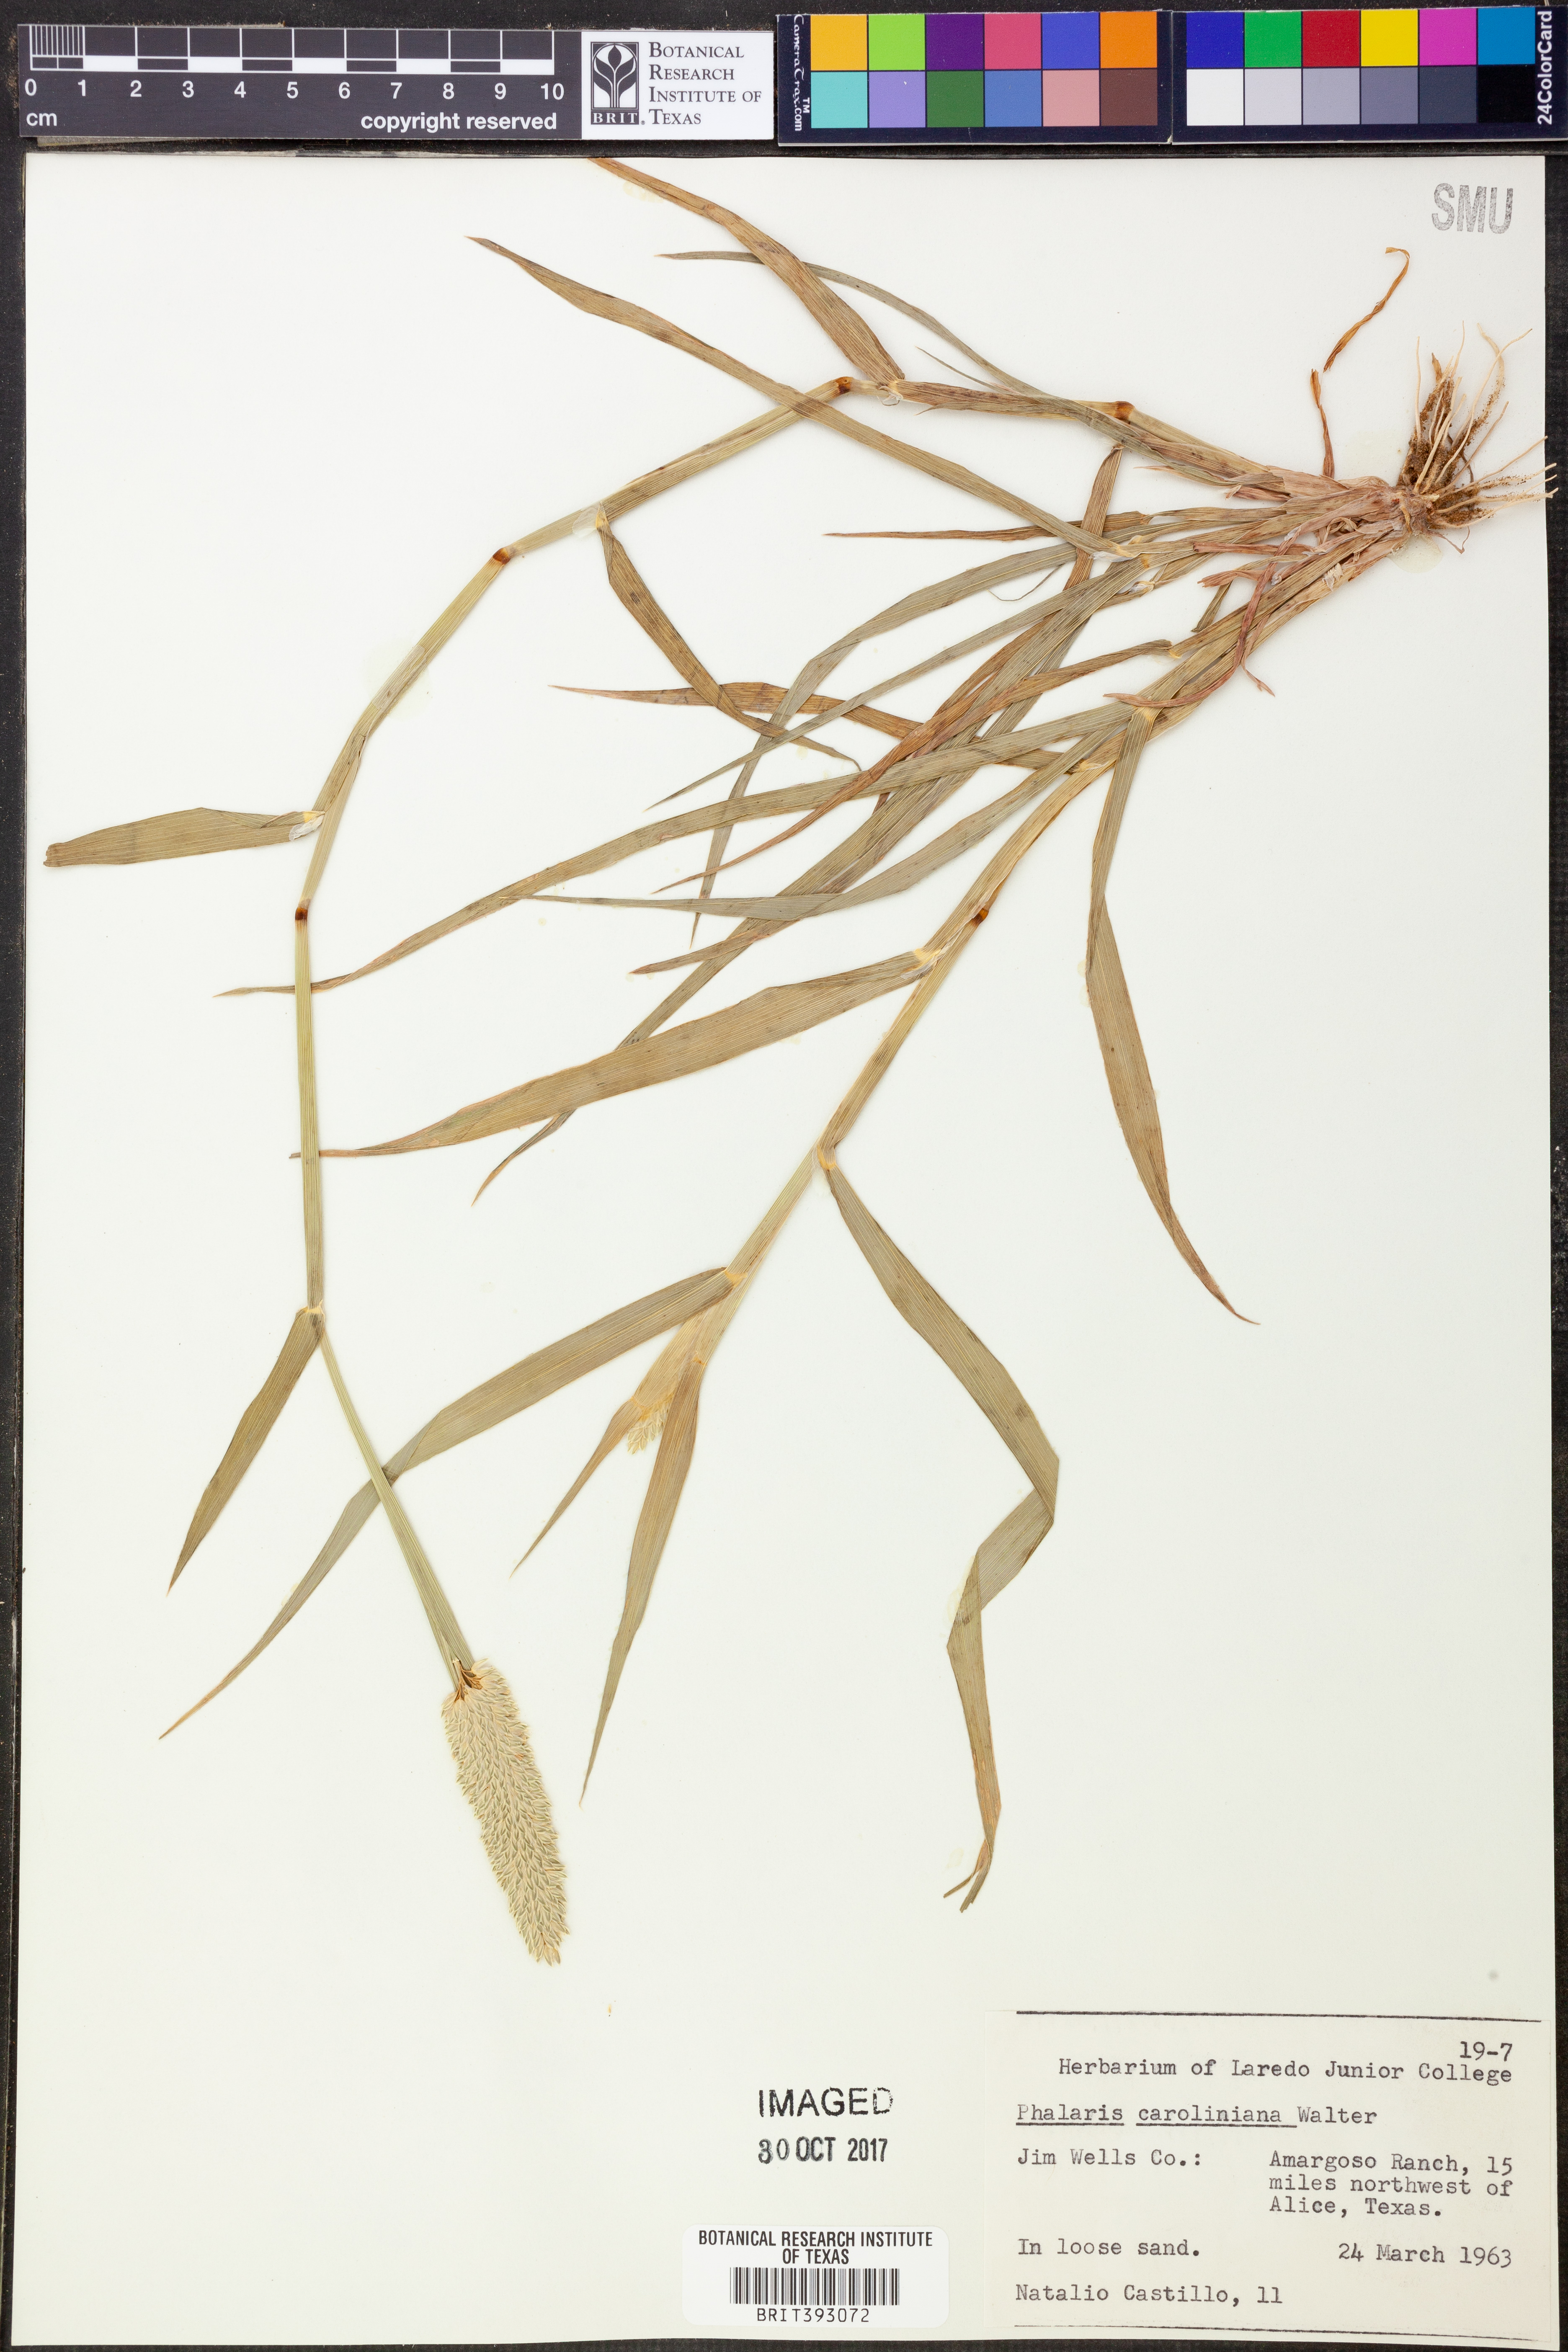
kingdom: Plantae
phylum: Tracheophyta
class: Liliopsida
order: Poales
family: Poaceae
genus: Phalaris
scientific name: Phalaris caroliniana
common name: May grass
